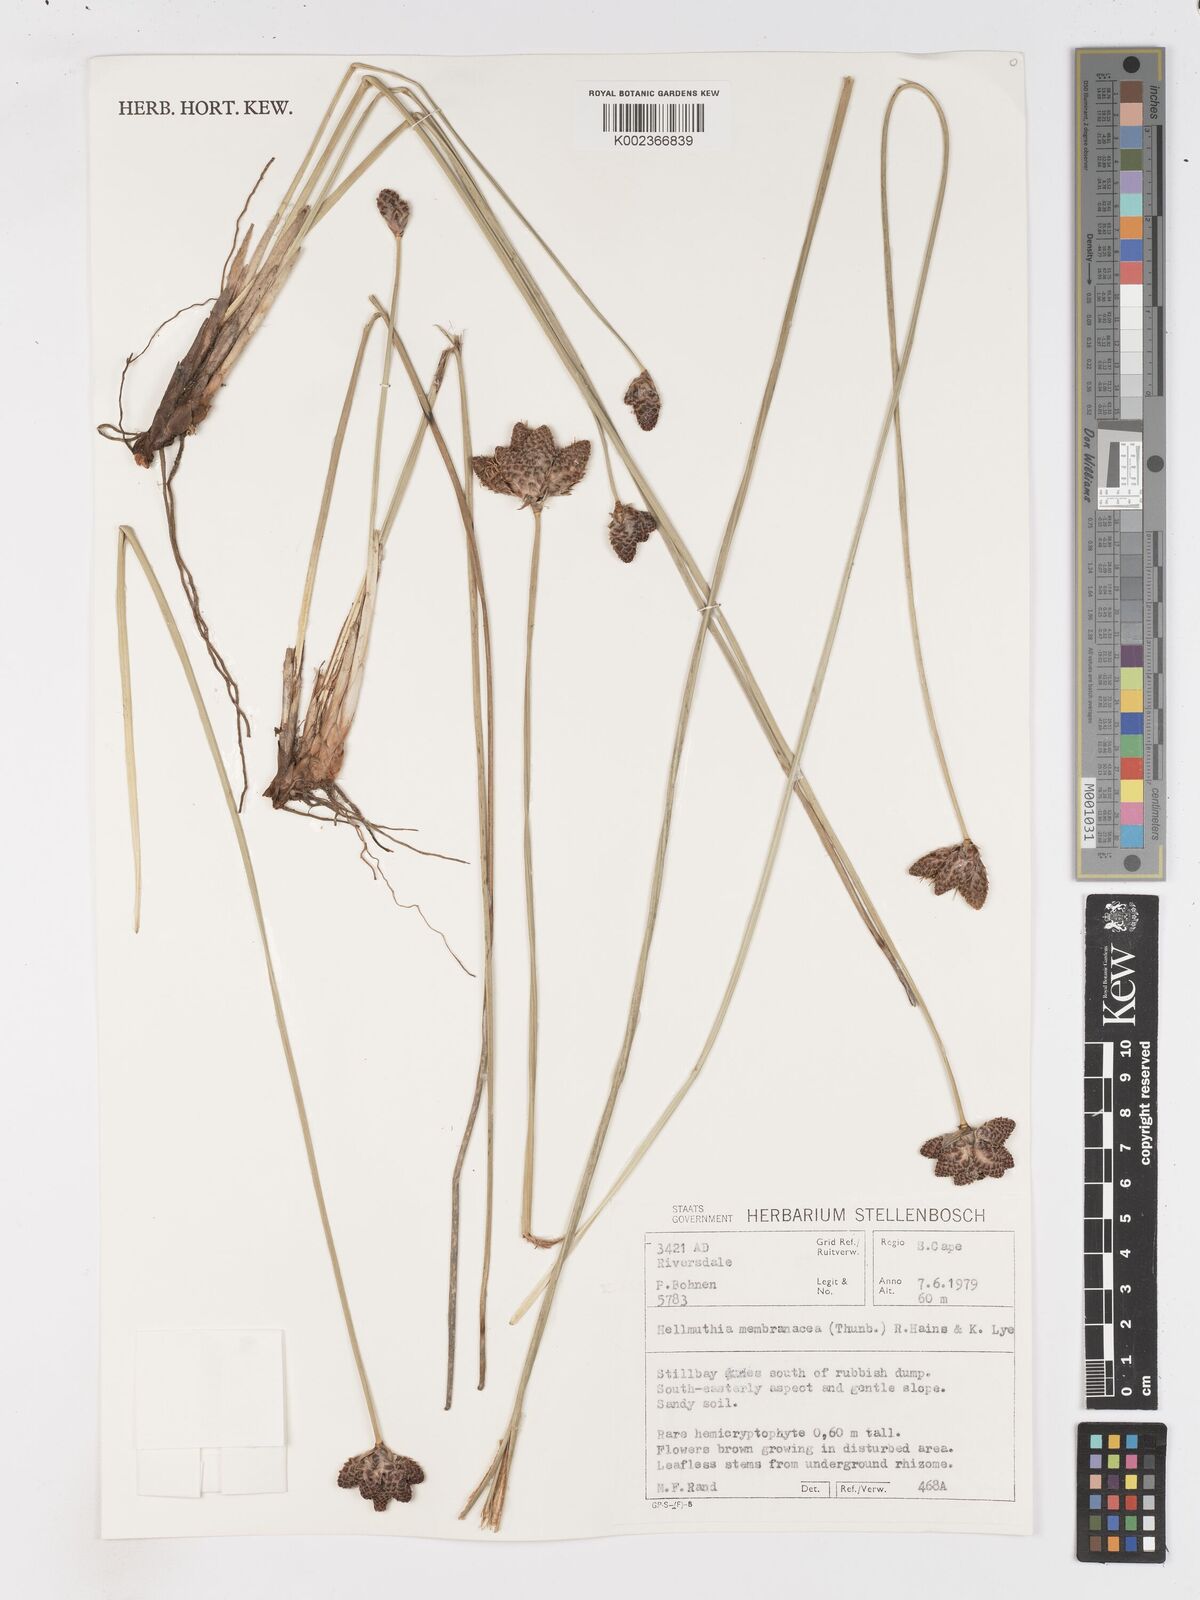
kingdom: Plantae
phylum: Tracheophyta
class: Liliopsida
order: Poales
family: Cyperaceae
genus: Hellmuthia
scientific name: Hellmuthia membranacea
